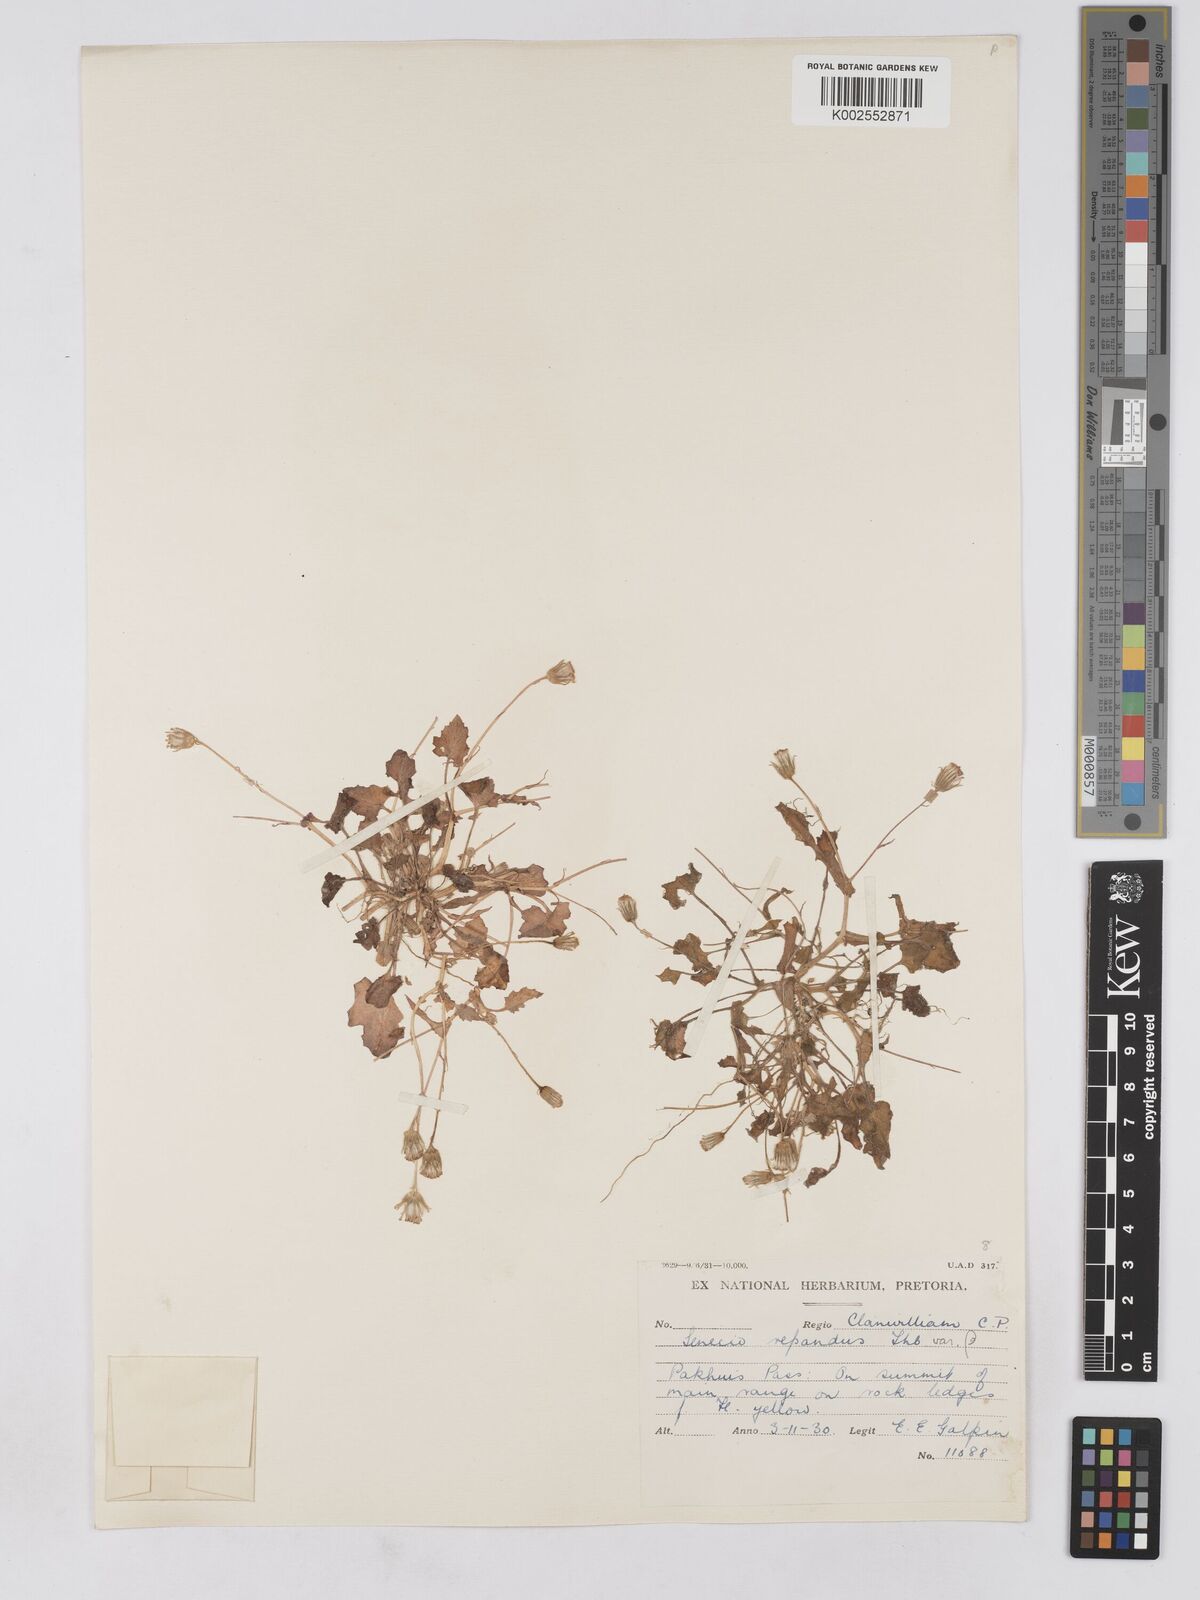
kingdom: Plantae
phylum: Tracheophyta
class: Magnoliopsida
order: Asterales
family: Asteraceae
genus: Senecio
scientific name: Senecio repandus
